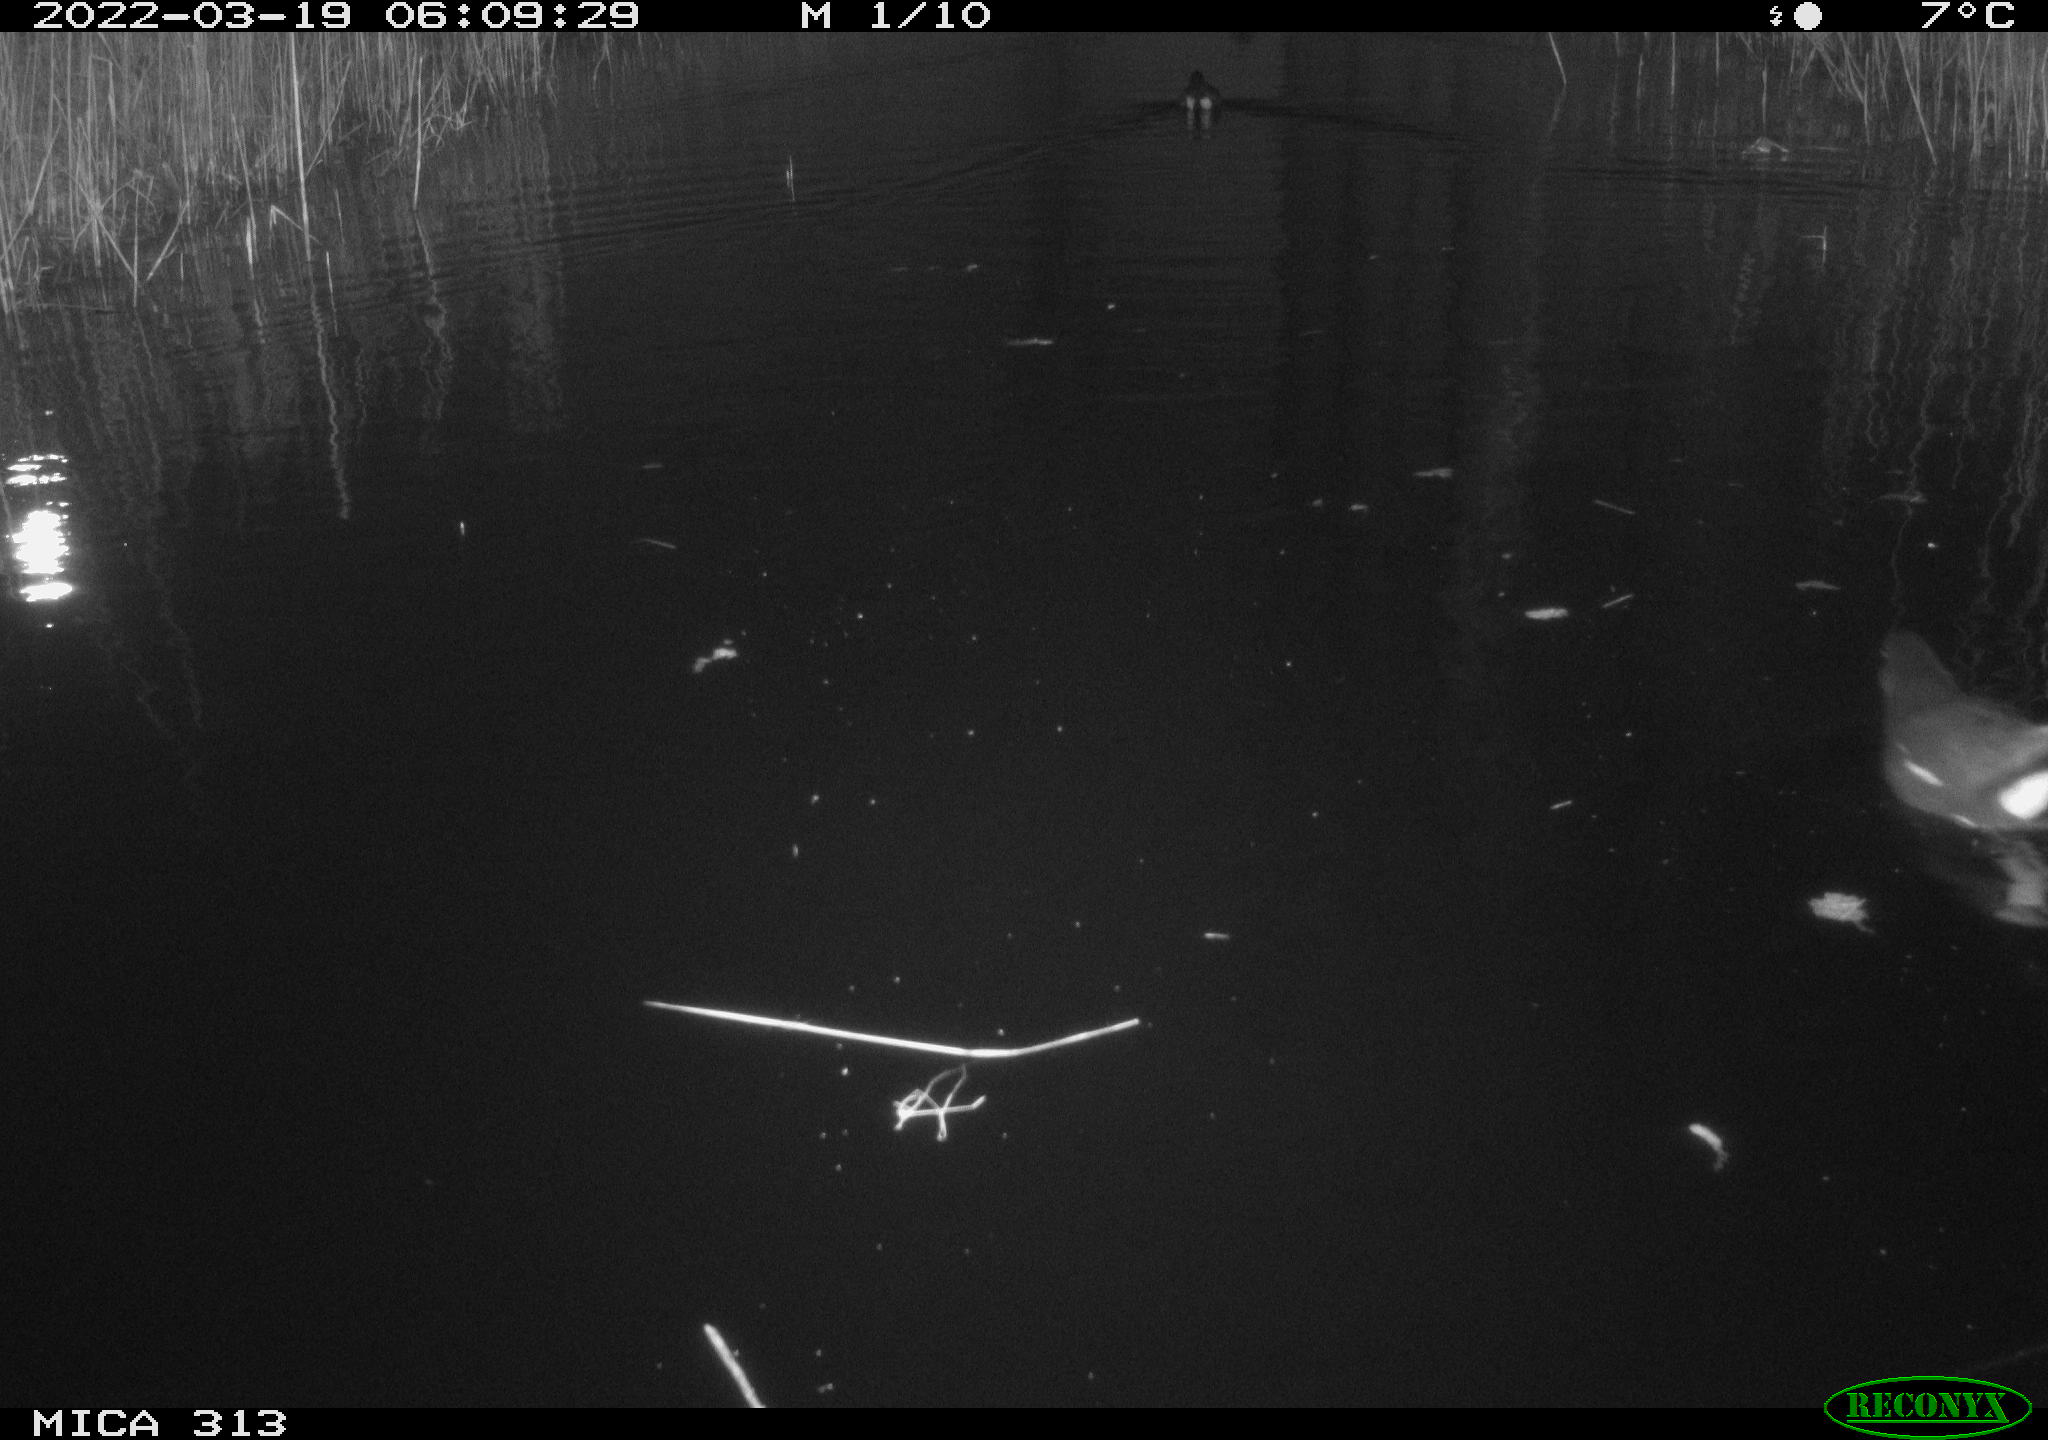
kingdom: Animalia
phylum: Chordata
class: Aves
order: Gruiformes
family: Rallidae
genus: Gallinula
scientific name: Gallinula chloropus
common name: Common moorhen
